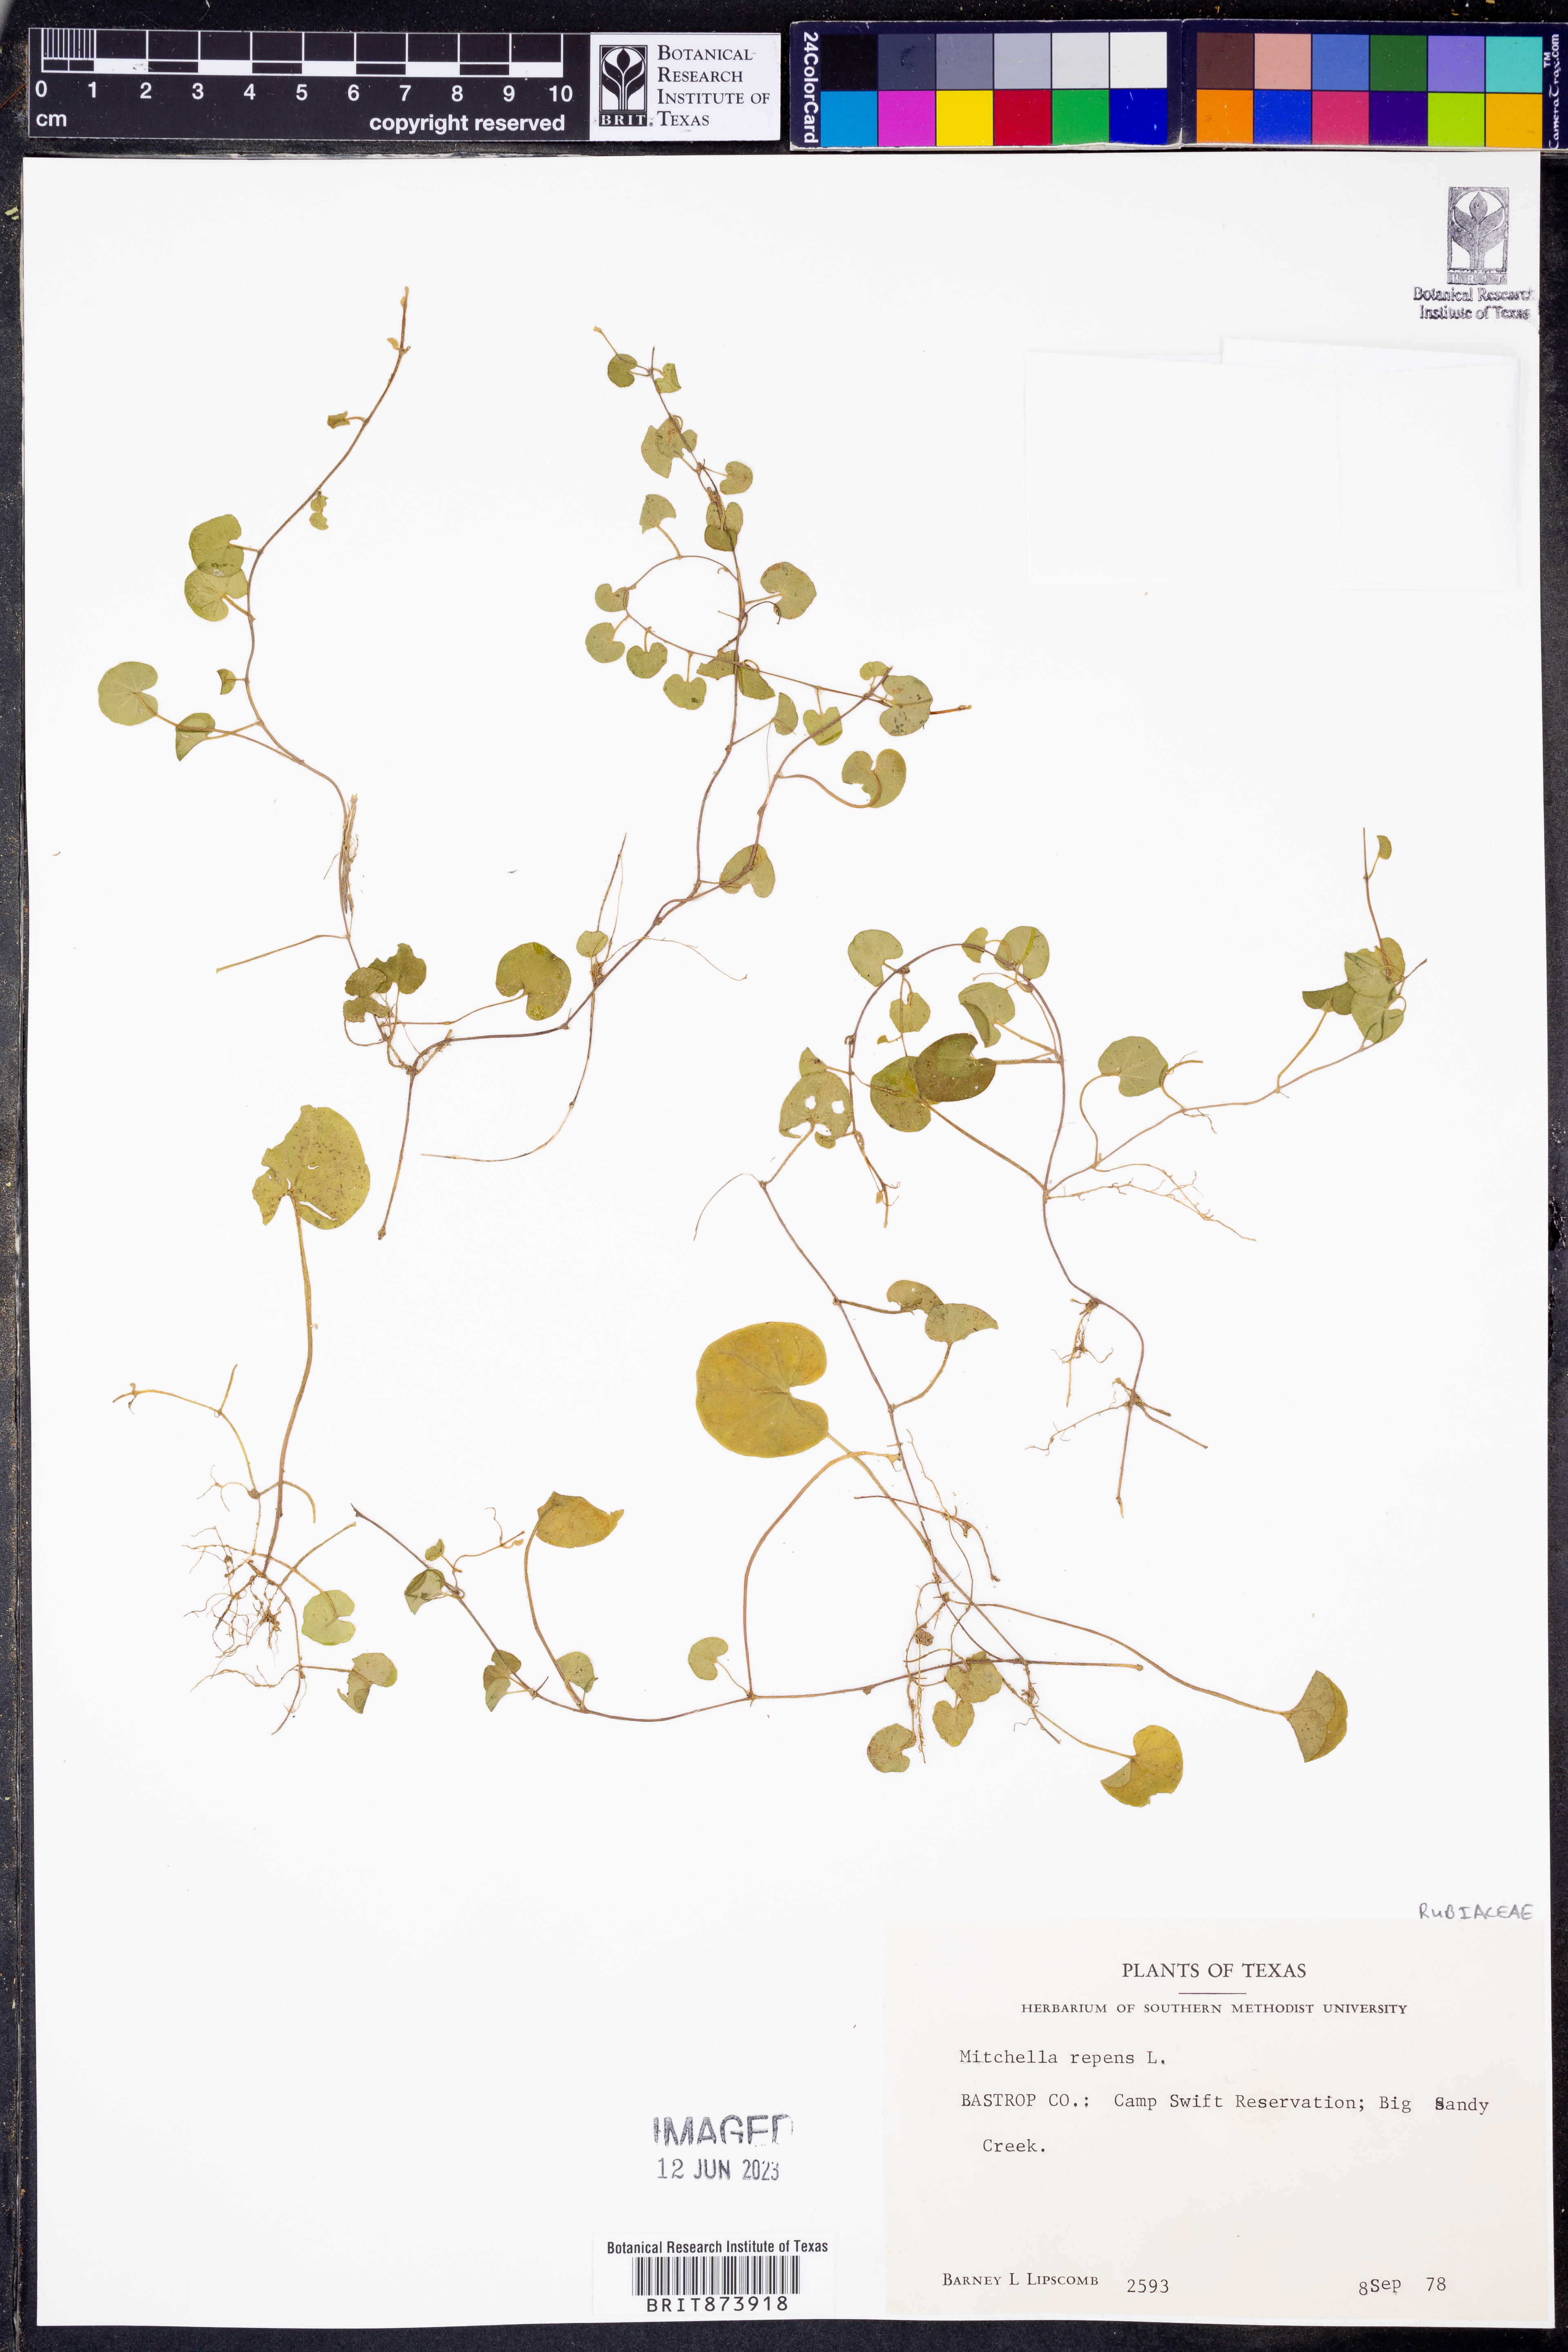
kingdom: Plantae
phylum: Tracheophyta
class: Magnoliopsida
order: Gentianales
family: Rubiaceae
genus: Mitchella
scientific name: Mitchella repens
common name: Partridge-berry
